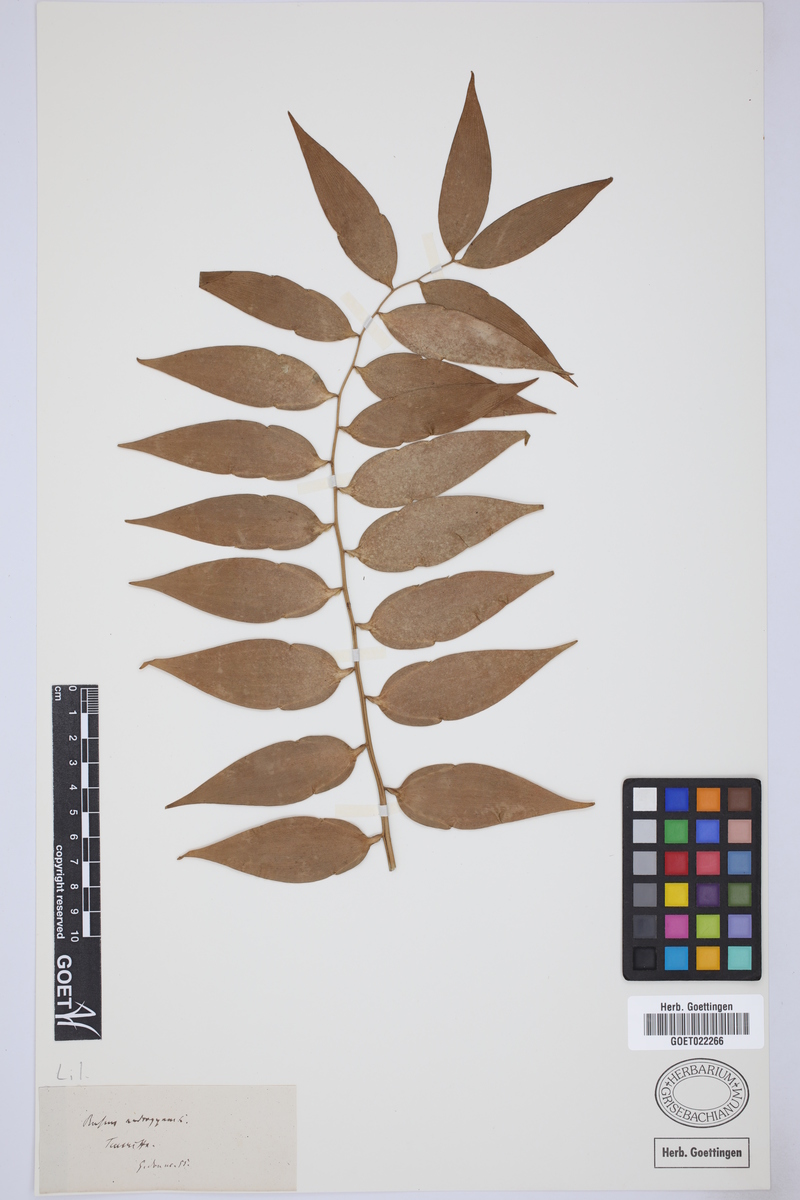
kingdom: Plantae
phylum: Tracheophyta
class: Liliopsida
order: Asparagales
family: Asparagaceae
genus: Semele
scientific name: Semele androgyna
